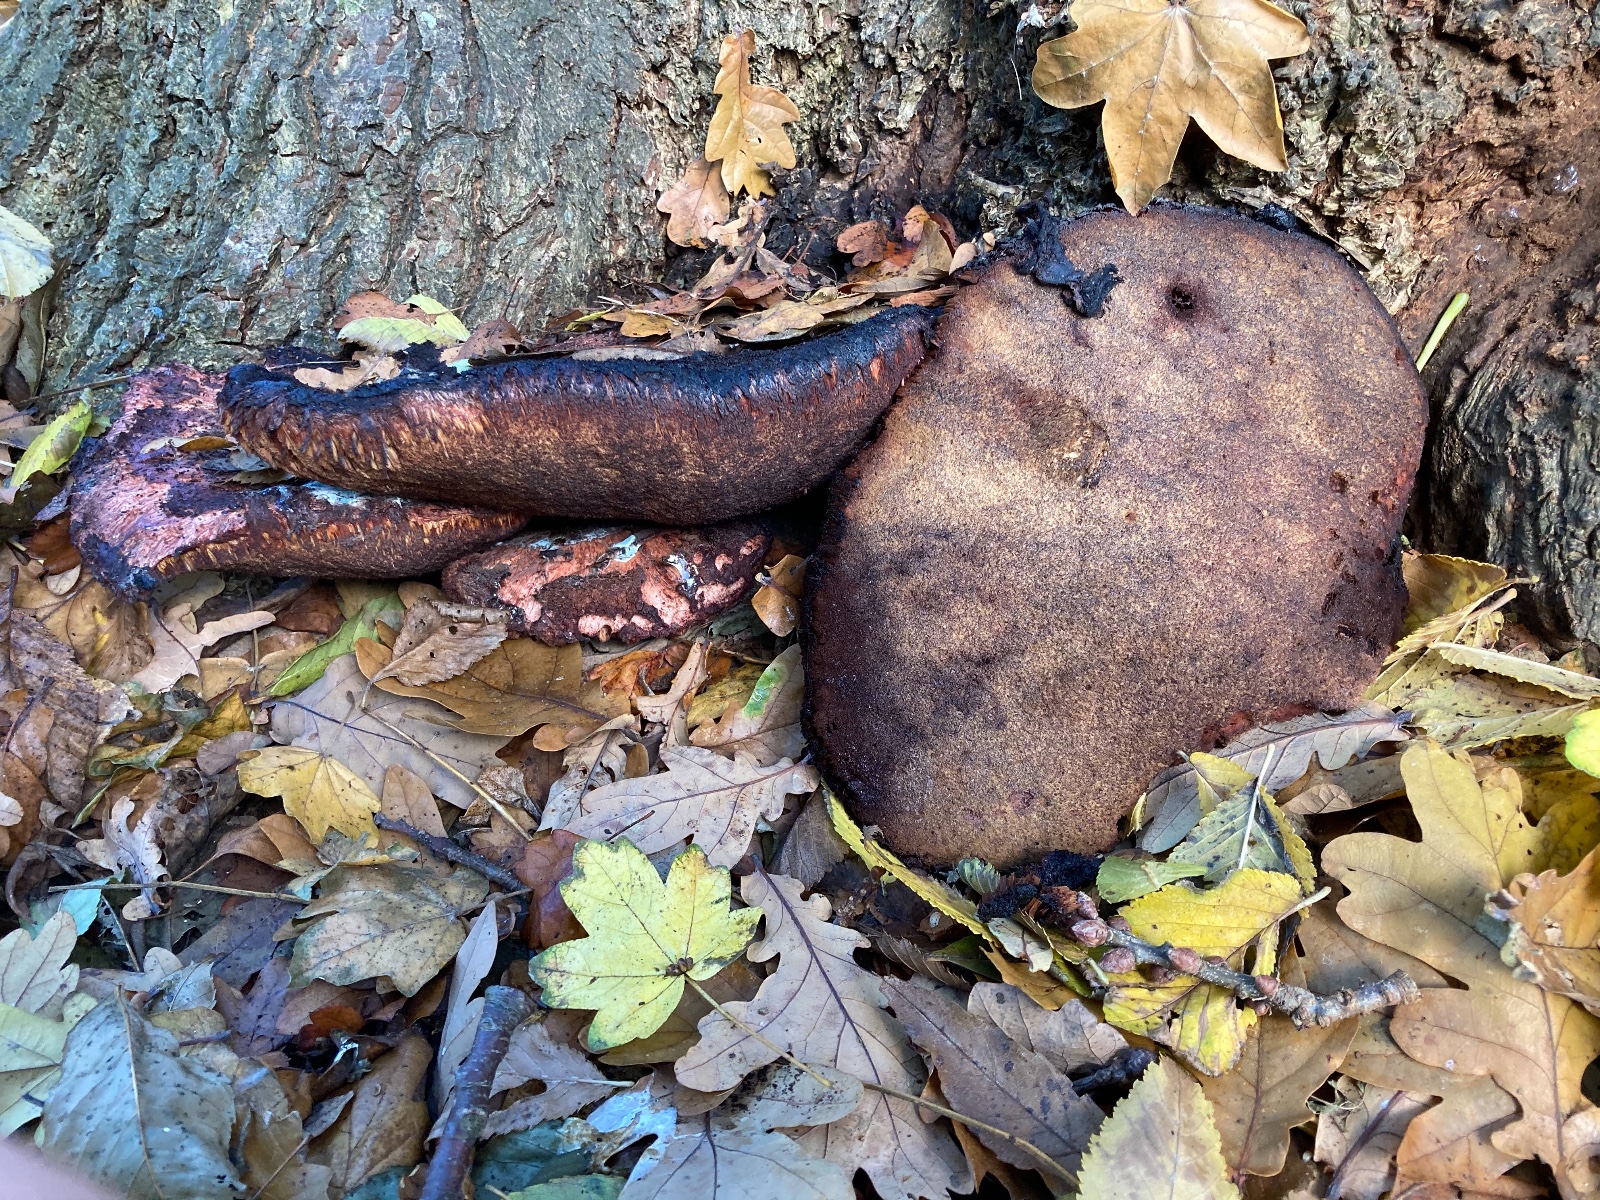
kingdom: Fungi
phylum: Basidiomycota
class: Agaricomycetes
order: Agaricales
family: Fistulinaceae
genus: Fistulina
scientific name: Fistulina hepatica
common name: oksetunge
